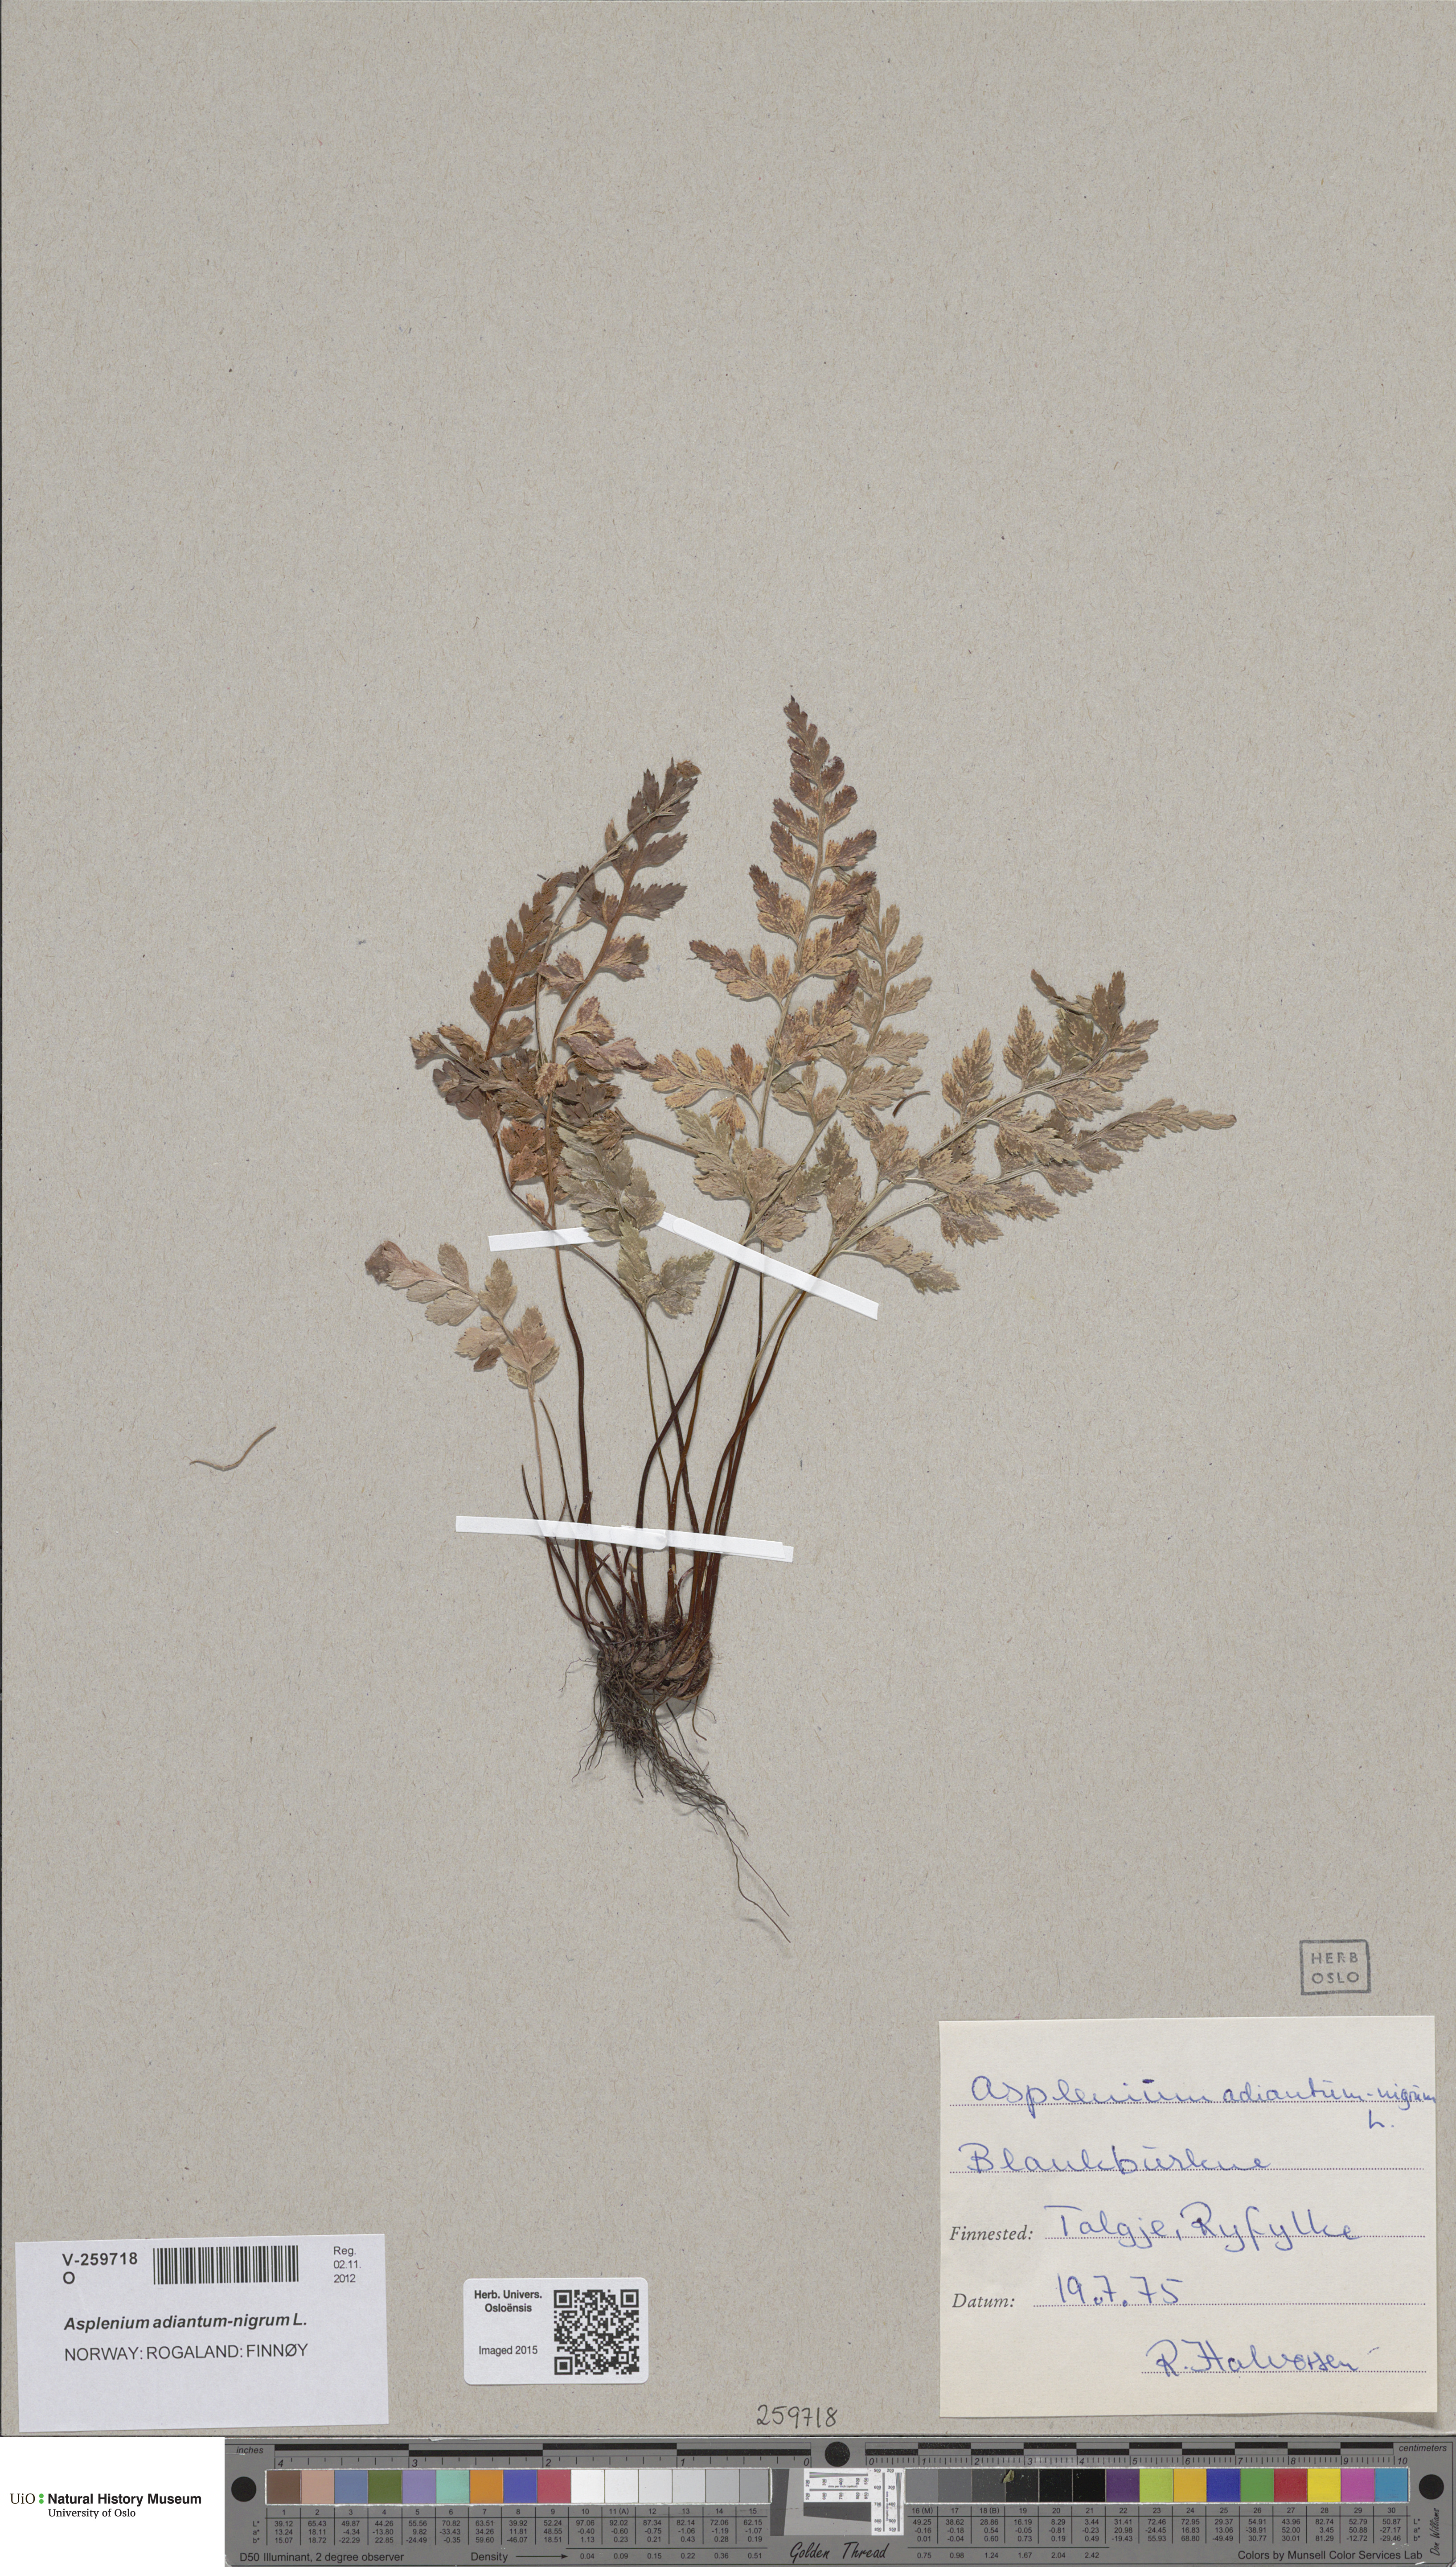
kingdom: Plantae
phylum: Tracheophyta
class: Polypodiopsida
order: Polypodiales
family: Aspleniaceae
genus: Asplenium
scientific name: Asplenium adiantum-nigrum
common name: Black spleenwort
